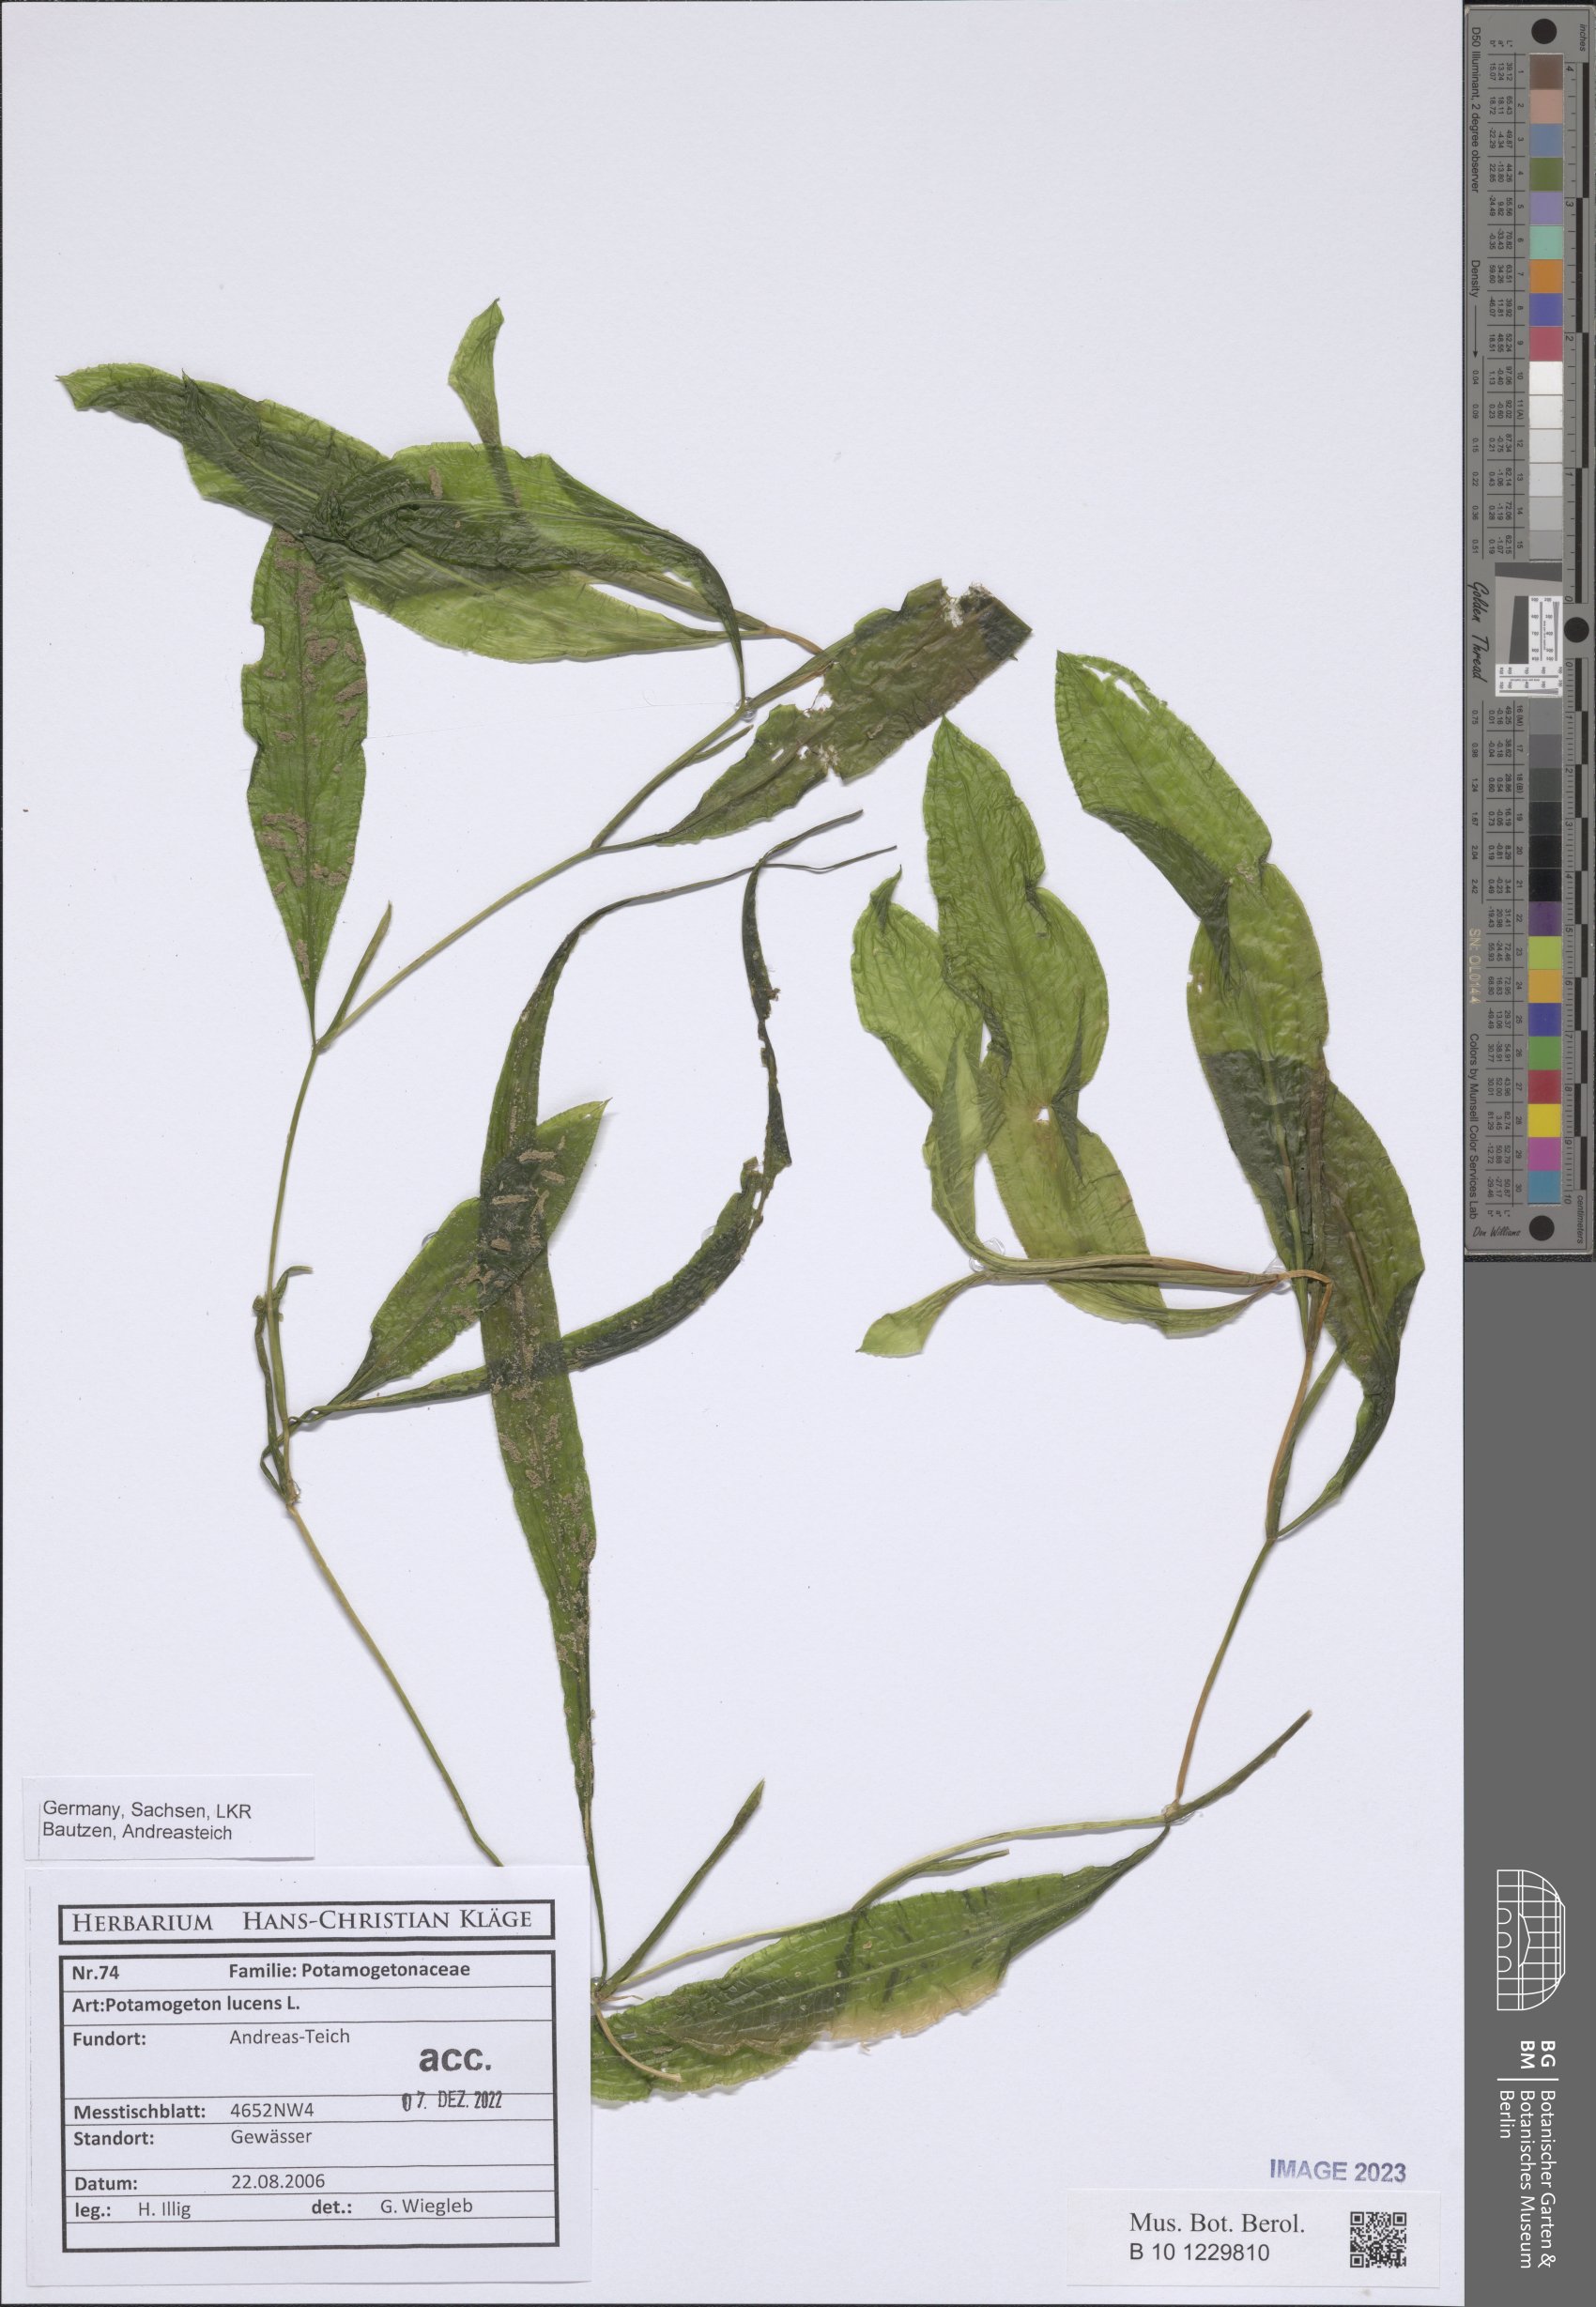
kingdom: Plantae
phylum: Tracheophyta
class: Liliopsida
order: Alismatales
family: Potamogetonaceae
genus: Potamogeton
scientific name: Potamogeton lucens
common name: Shining pondweed
